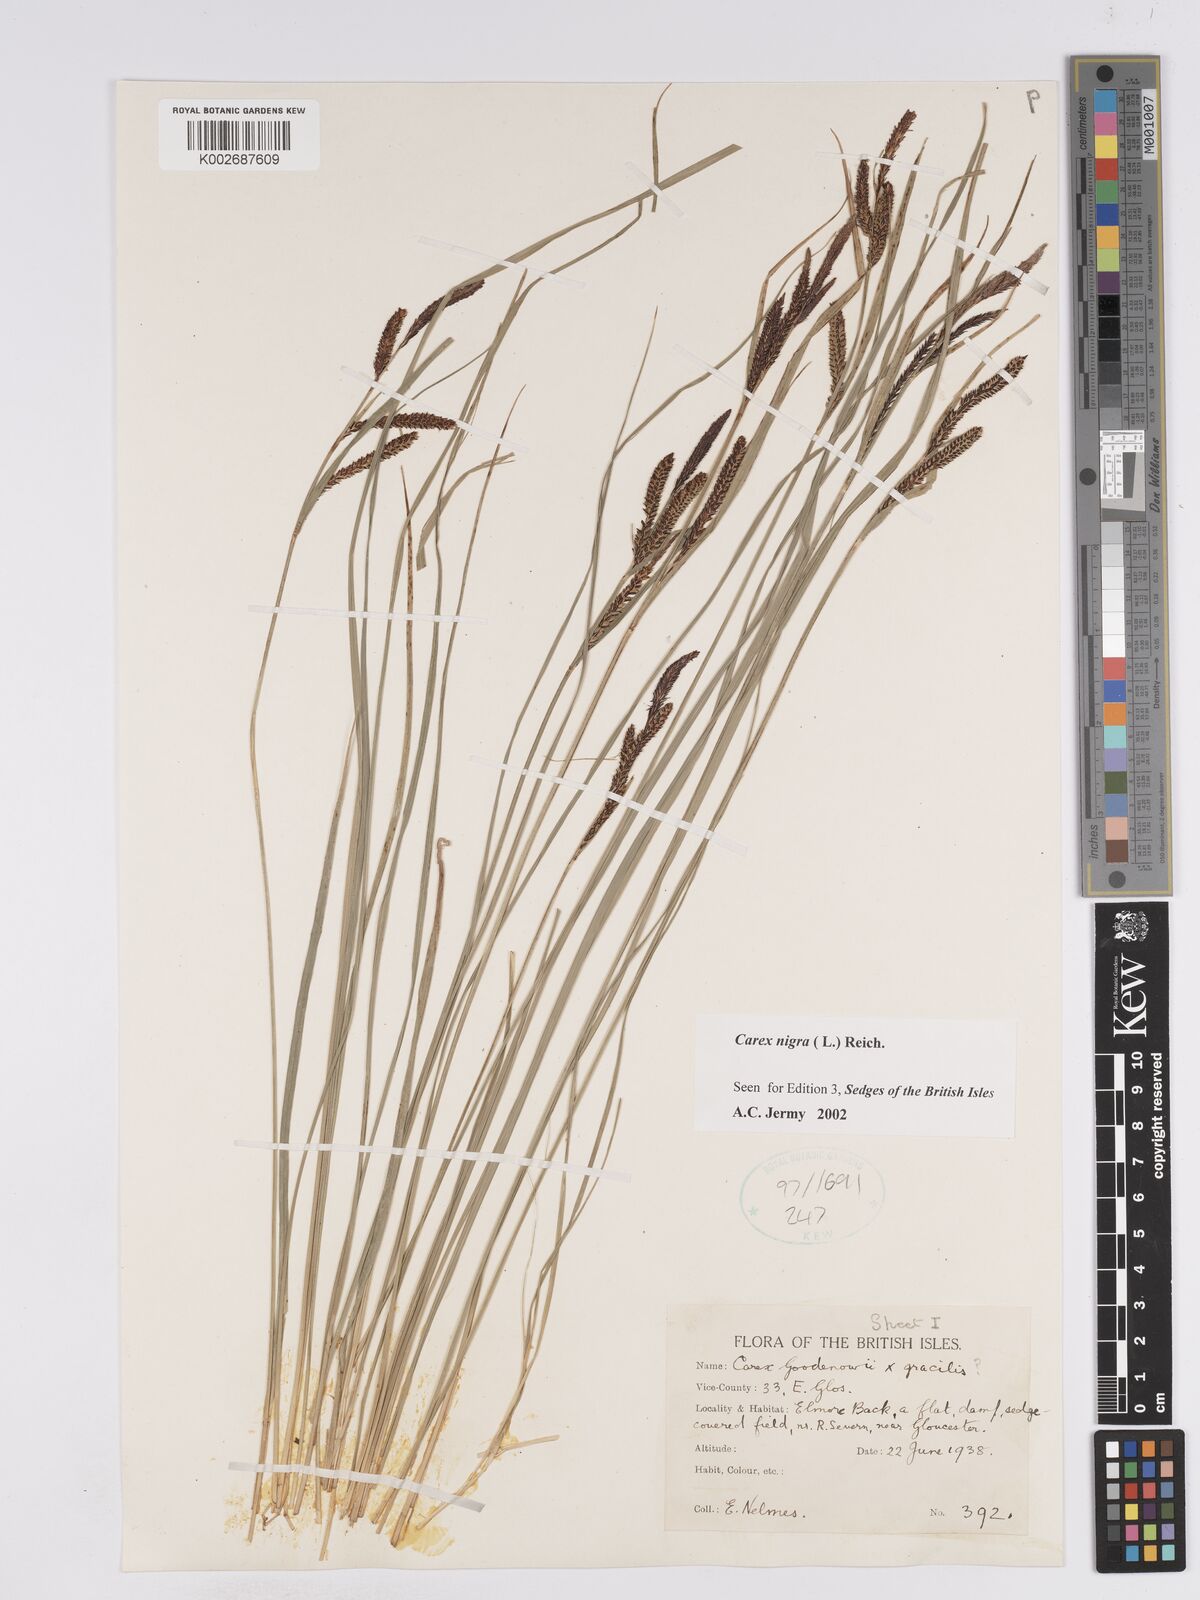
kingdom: Plantae
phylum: Tracheophyta
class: Liliopsida
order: Poales
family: Cyperaceae
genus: Carex
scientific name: Carex nigra
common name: Common sedge
